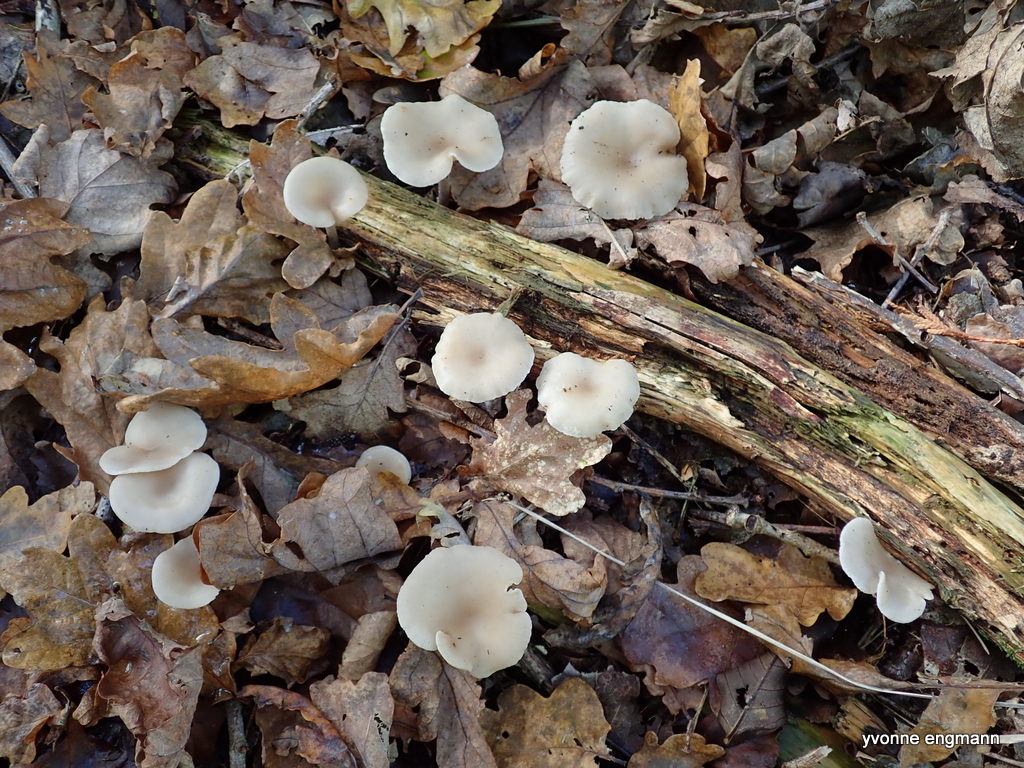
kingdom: Fungi
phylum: Basidiomycota
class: Agaricomycetes
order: Agaricales
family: Tricholomataceae
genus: Clitocybe
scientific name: Clitocybe
